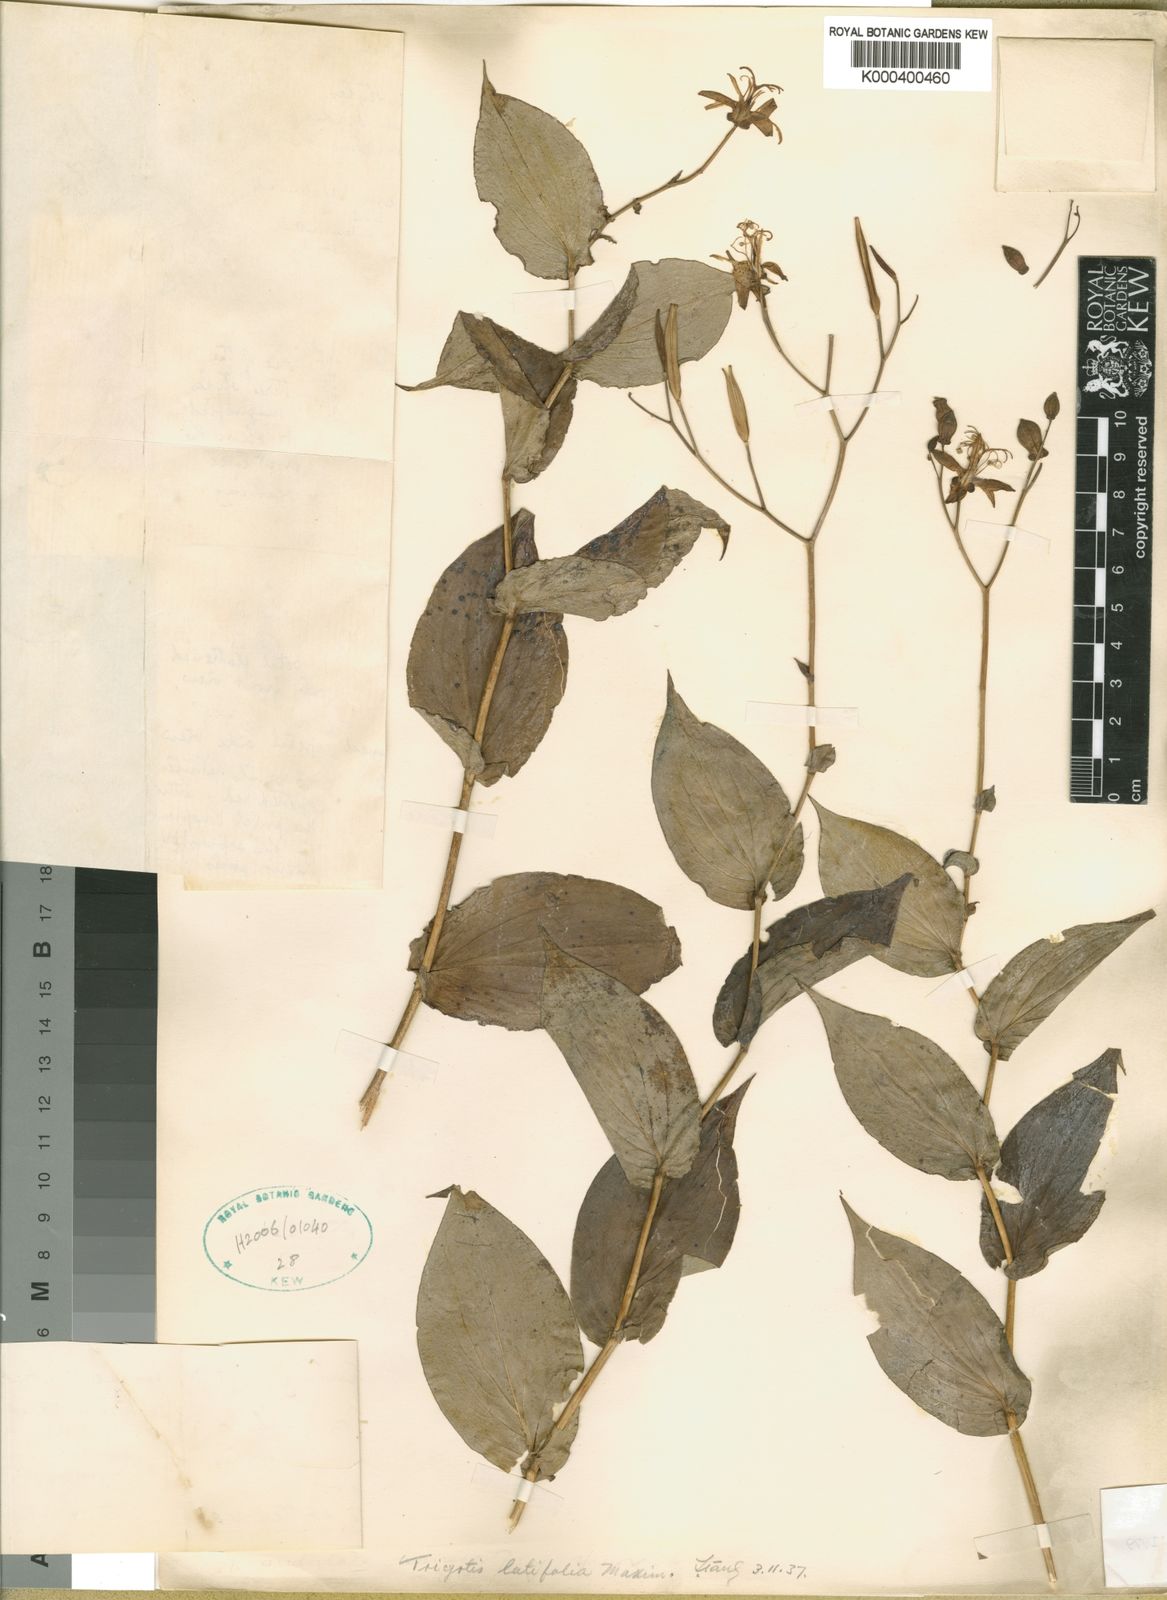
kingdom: Plantae
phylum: Tracheophyta
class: Liliopsida
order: Liliales
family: Liliaceae
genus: Tricyrtis
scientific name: Tricyrtis macropoda
